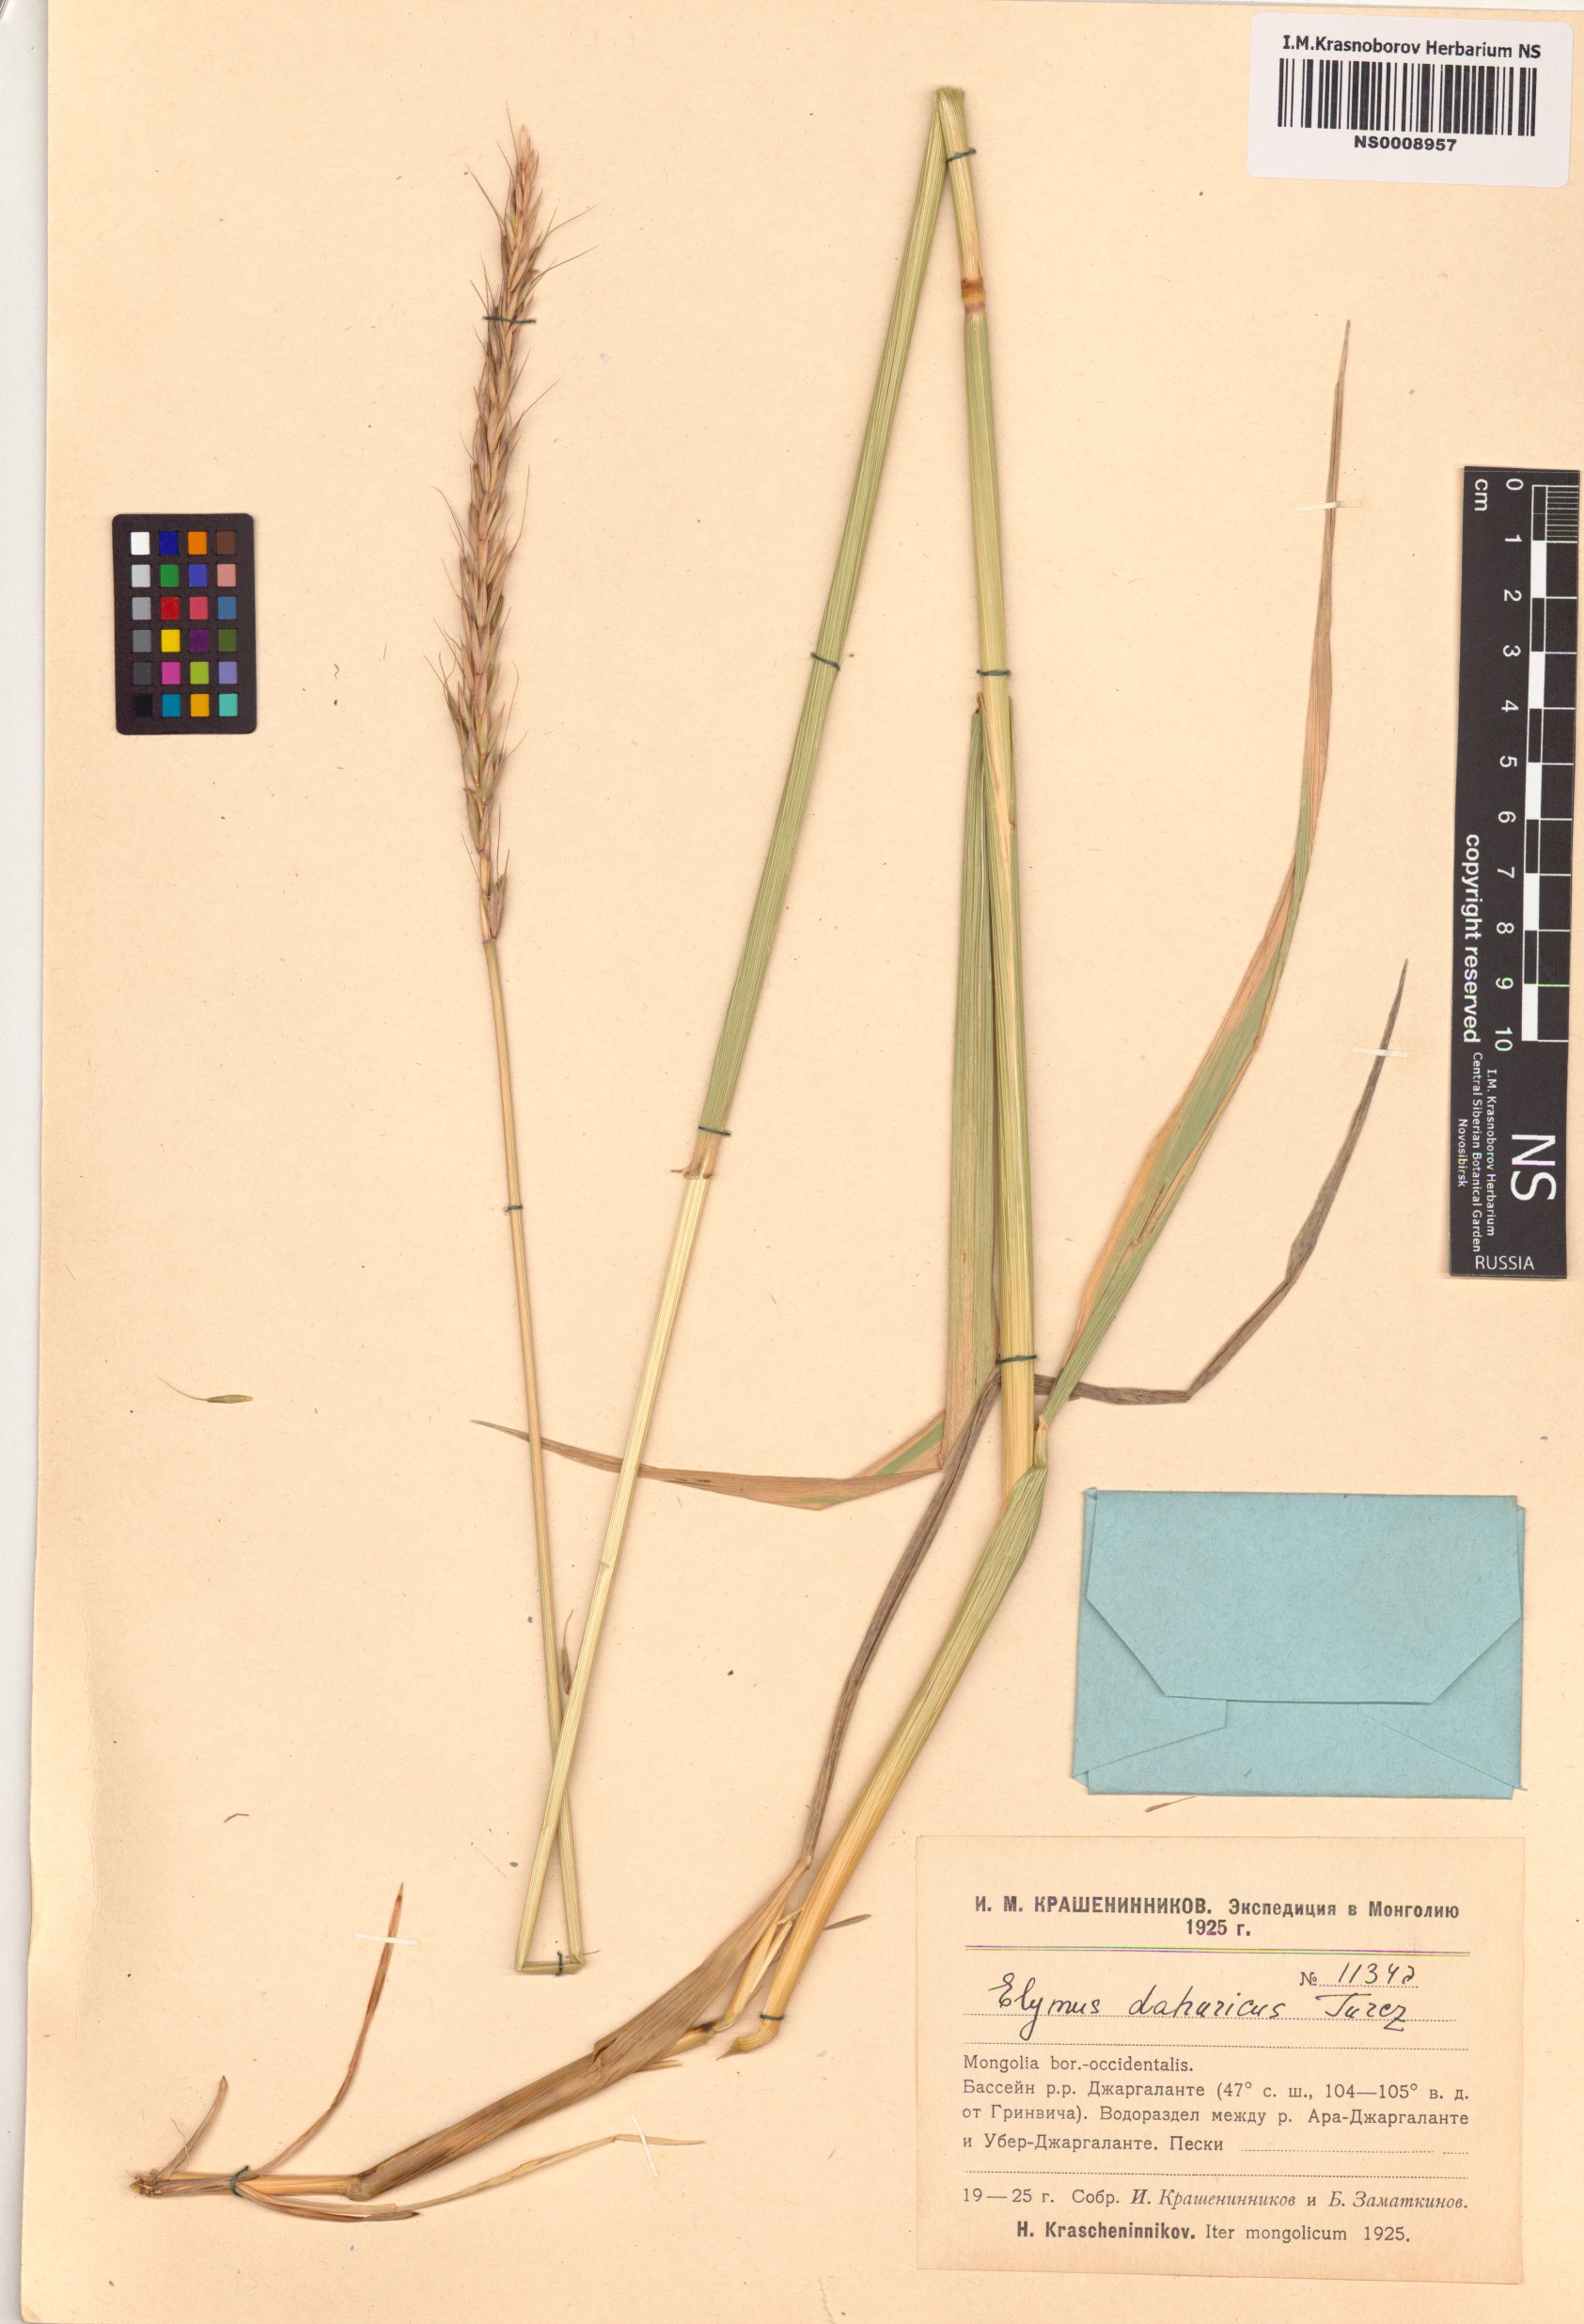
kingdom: Plantae
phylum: Tracheophyta
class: Liliopsida
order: Poales
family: Poaceae
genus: Elymus
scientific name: Elymus dahuricus
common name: Dahurian wild rye
